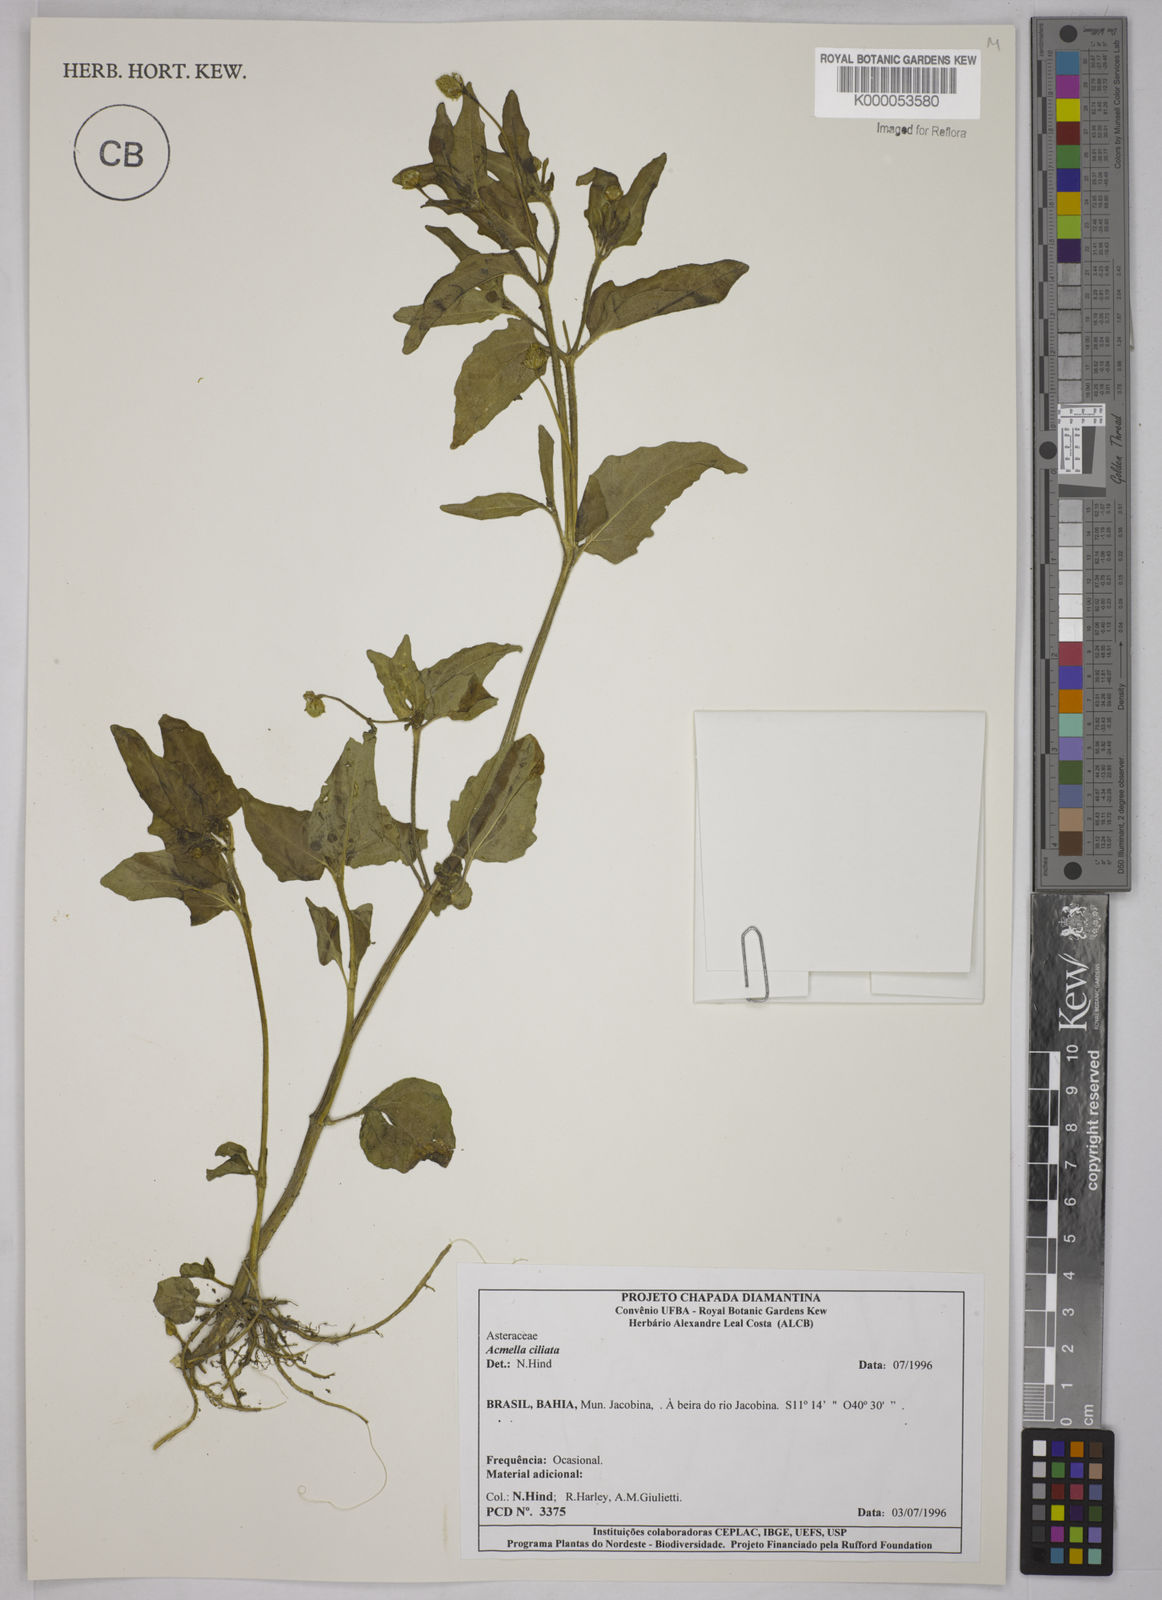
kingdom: Plantae
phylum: Tracheophyta
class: Magnoliopsida
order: Asterales
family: Asteraceae
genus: Acmella
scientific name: Acmella ciliata
